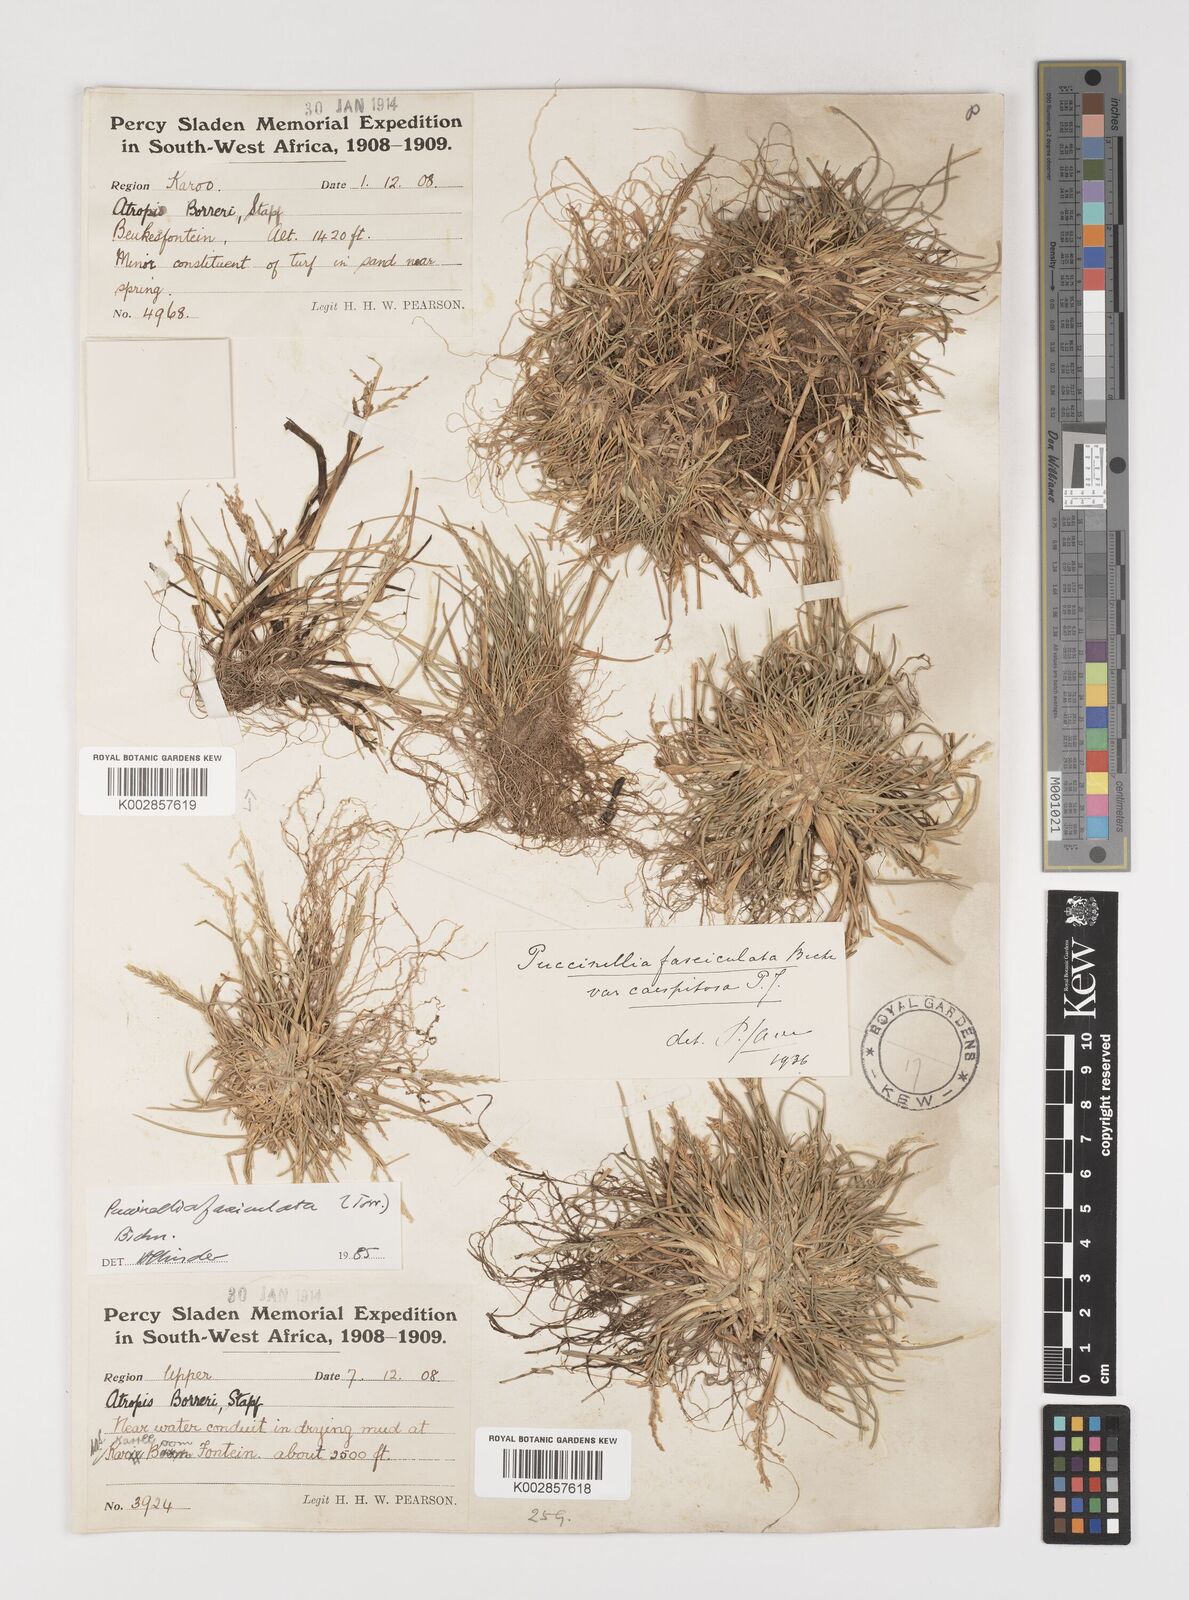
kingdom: Plantae
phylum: Tracheophyta
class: Liliopsida
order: Poales
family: Poaceae
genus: Puccinellia
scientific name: Puccinellia fasciculata
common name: Borrer's saltmarsh-grass
